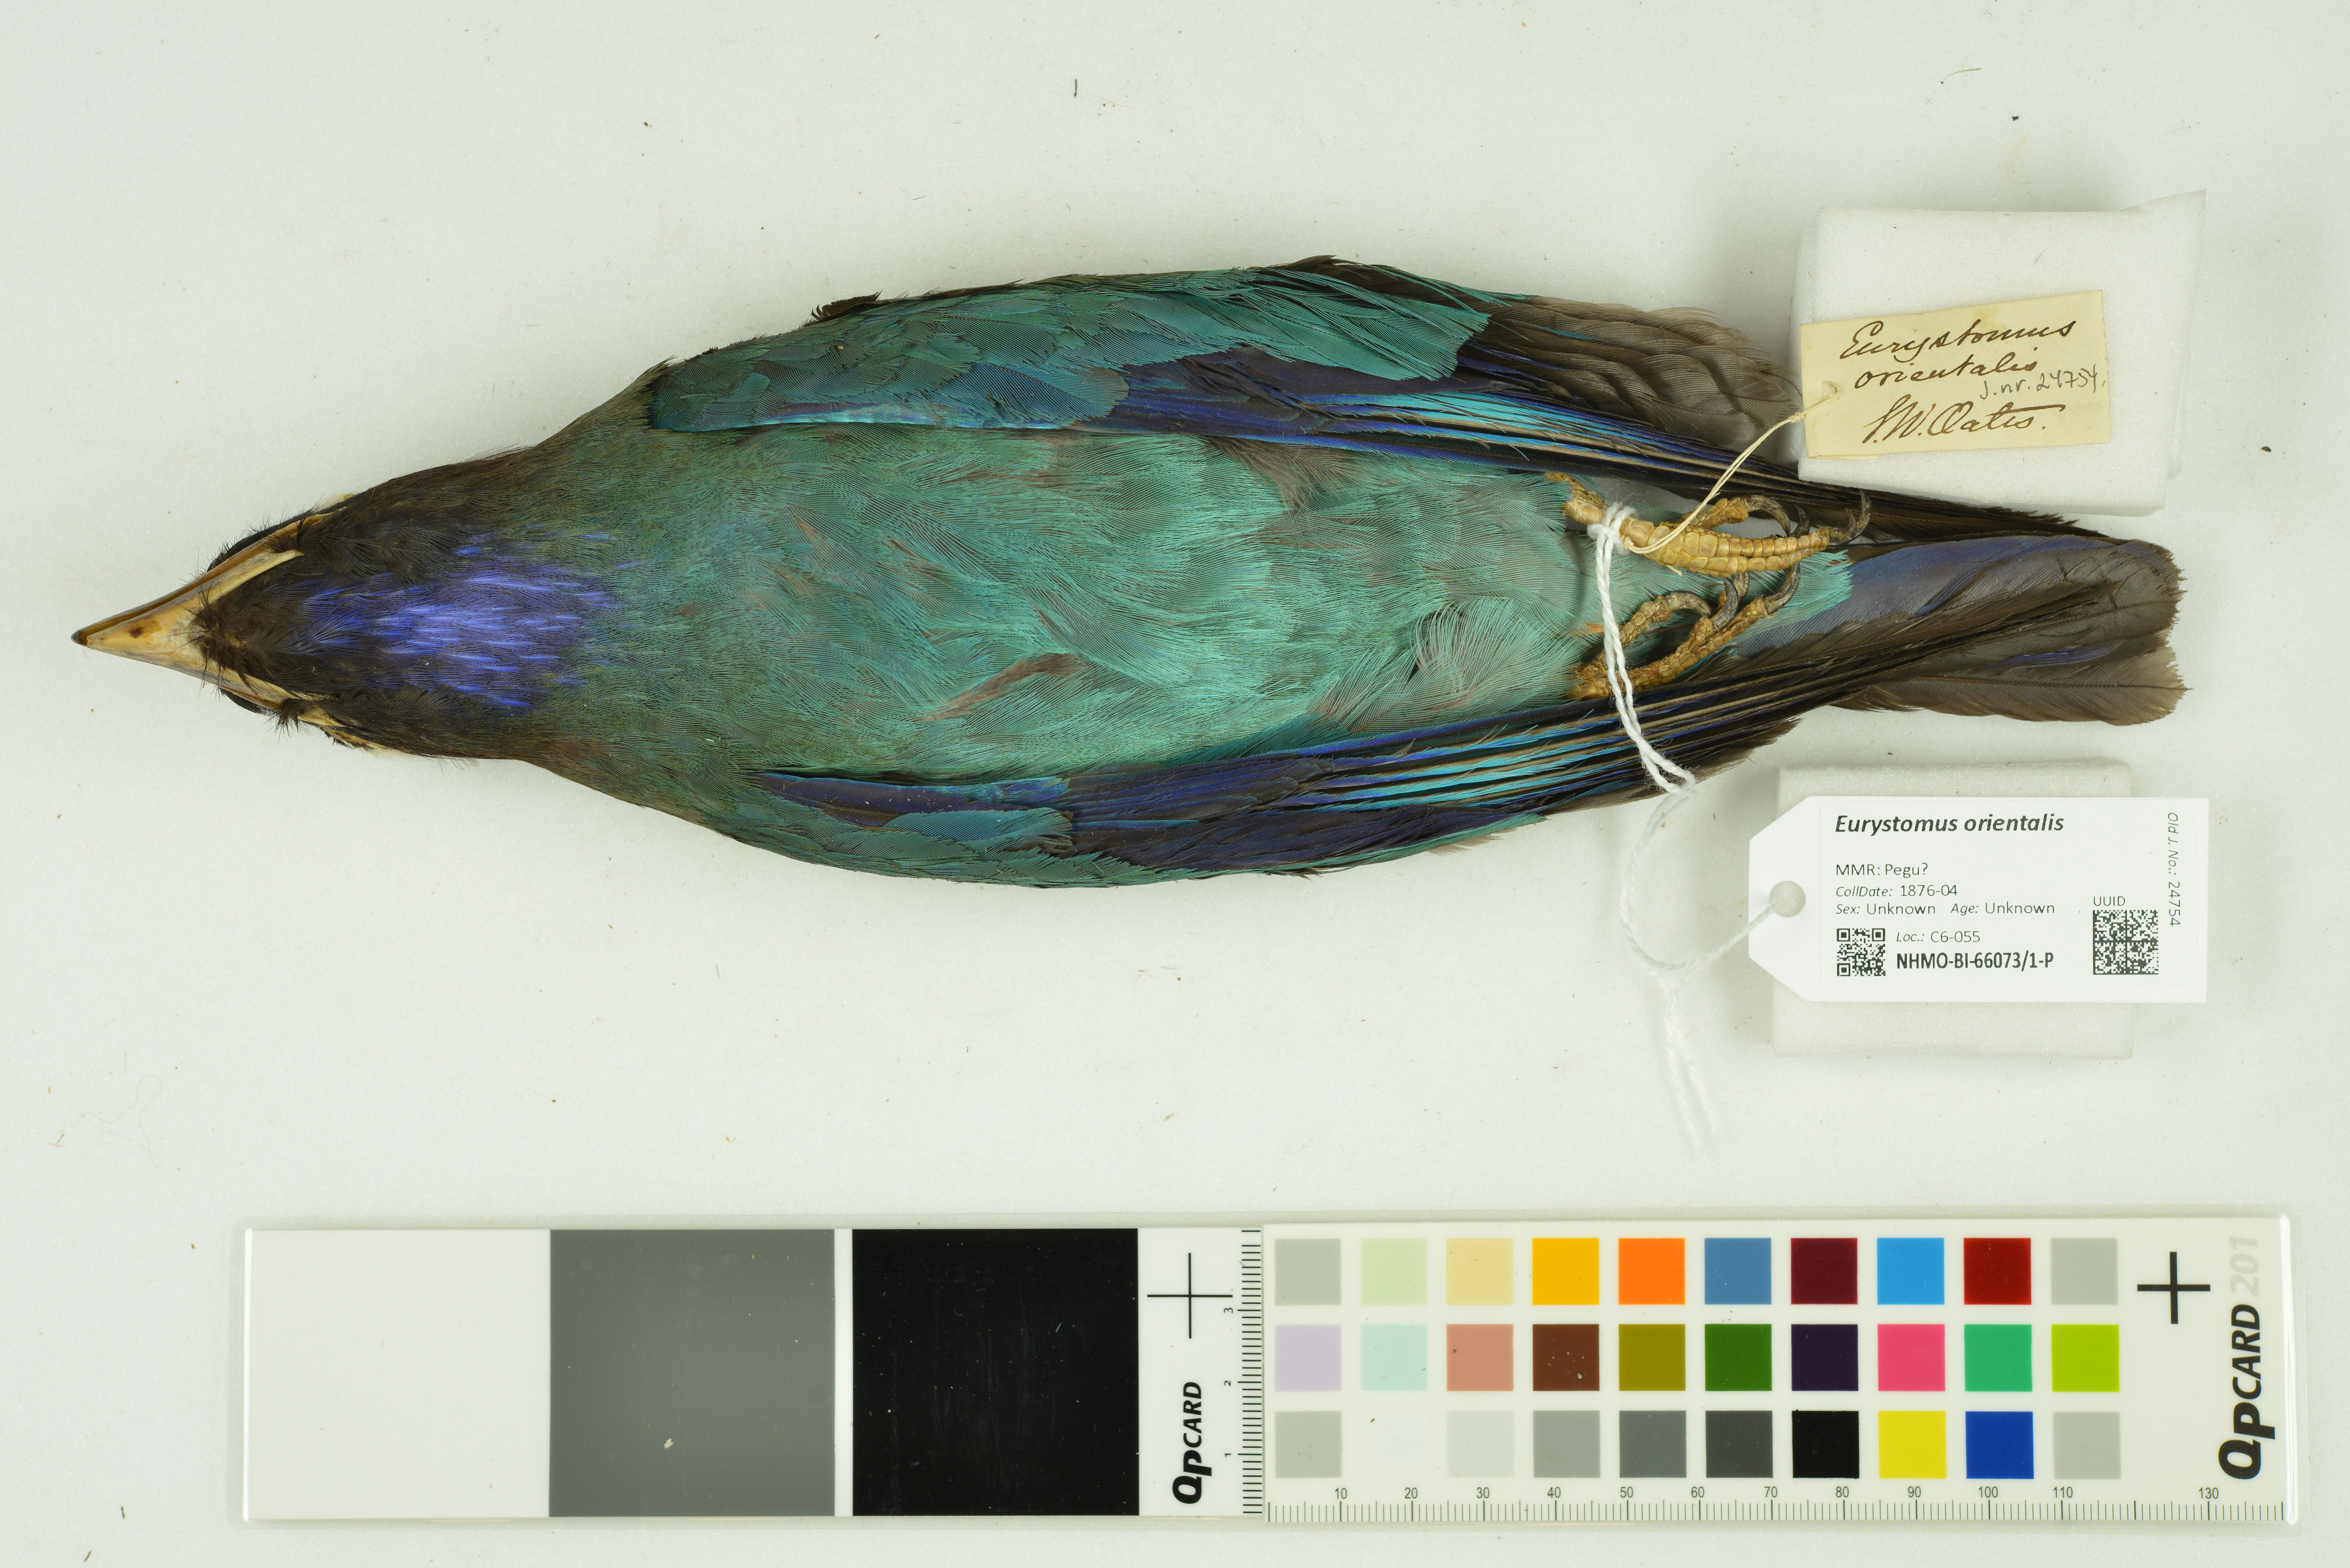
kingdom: Animalia
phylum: Chordata
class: Aves
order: Coraciiformes
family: Coraciidae
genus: Eurystomus
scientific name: Eurystomus orientalis
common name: Oriental dollarbird
